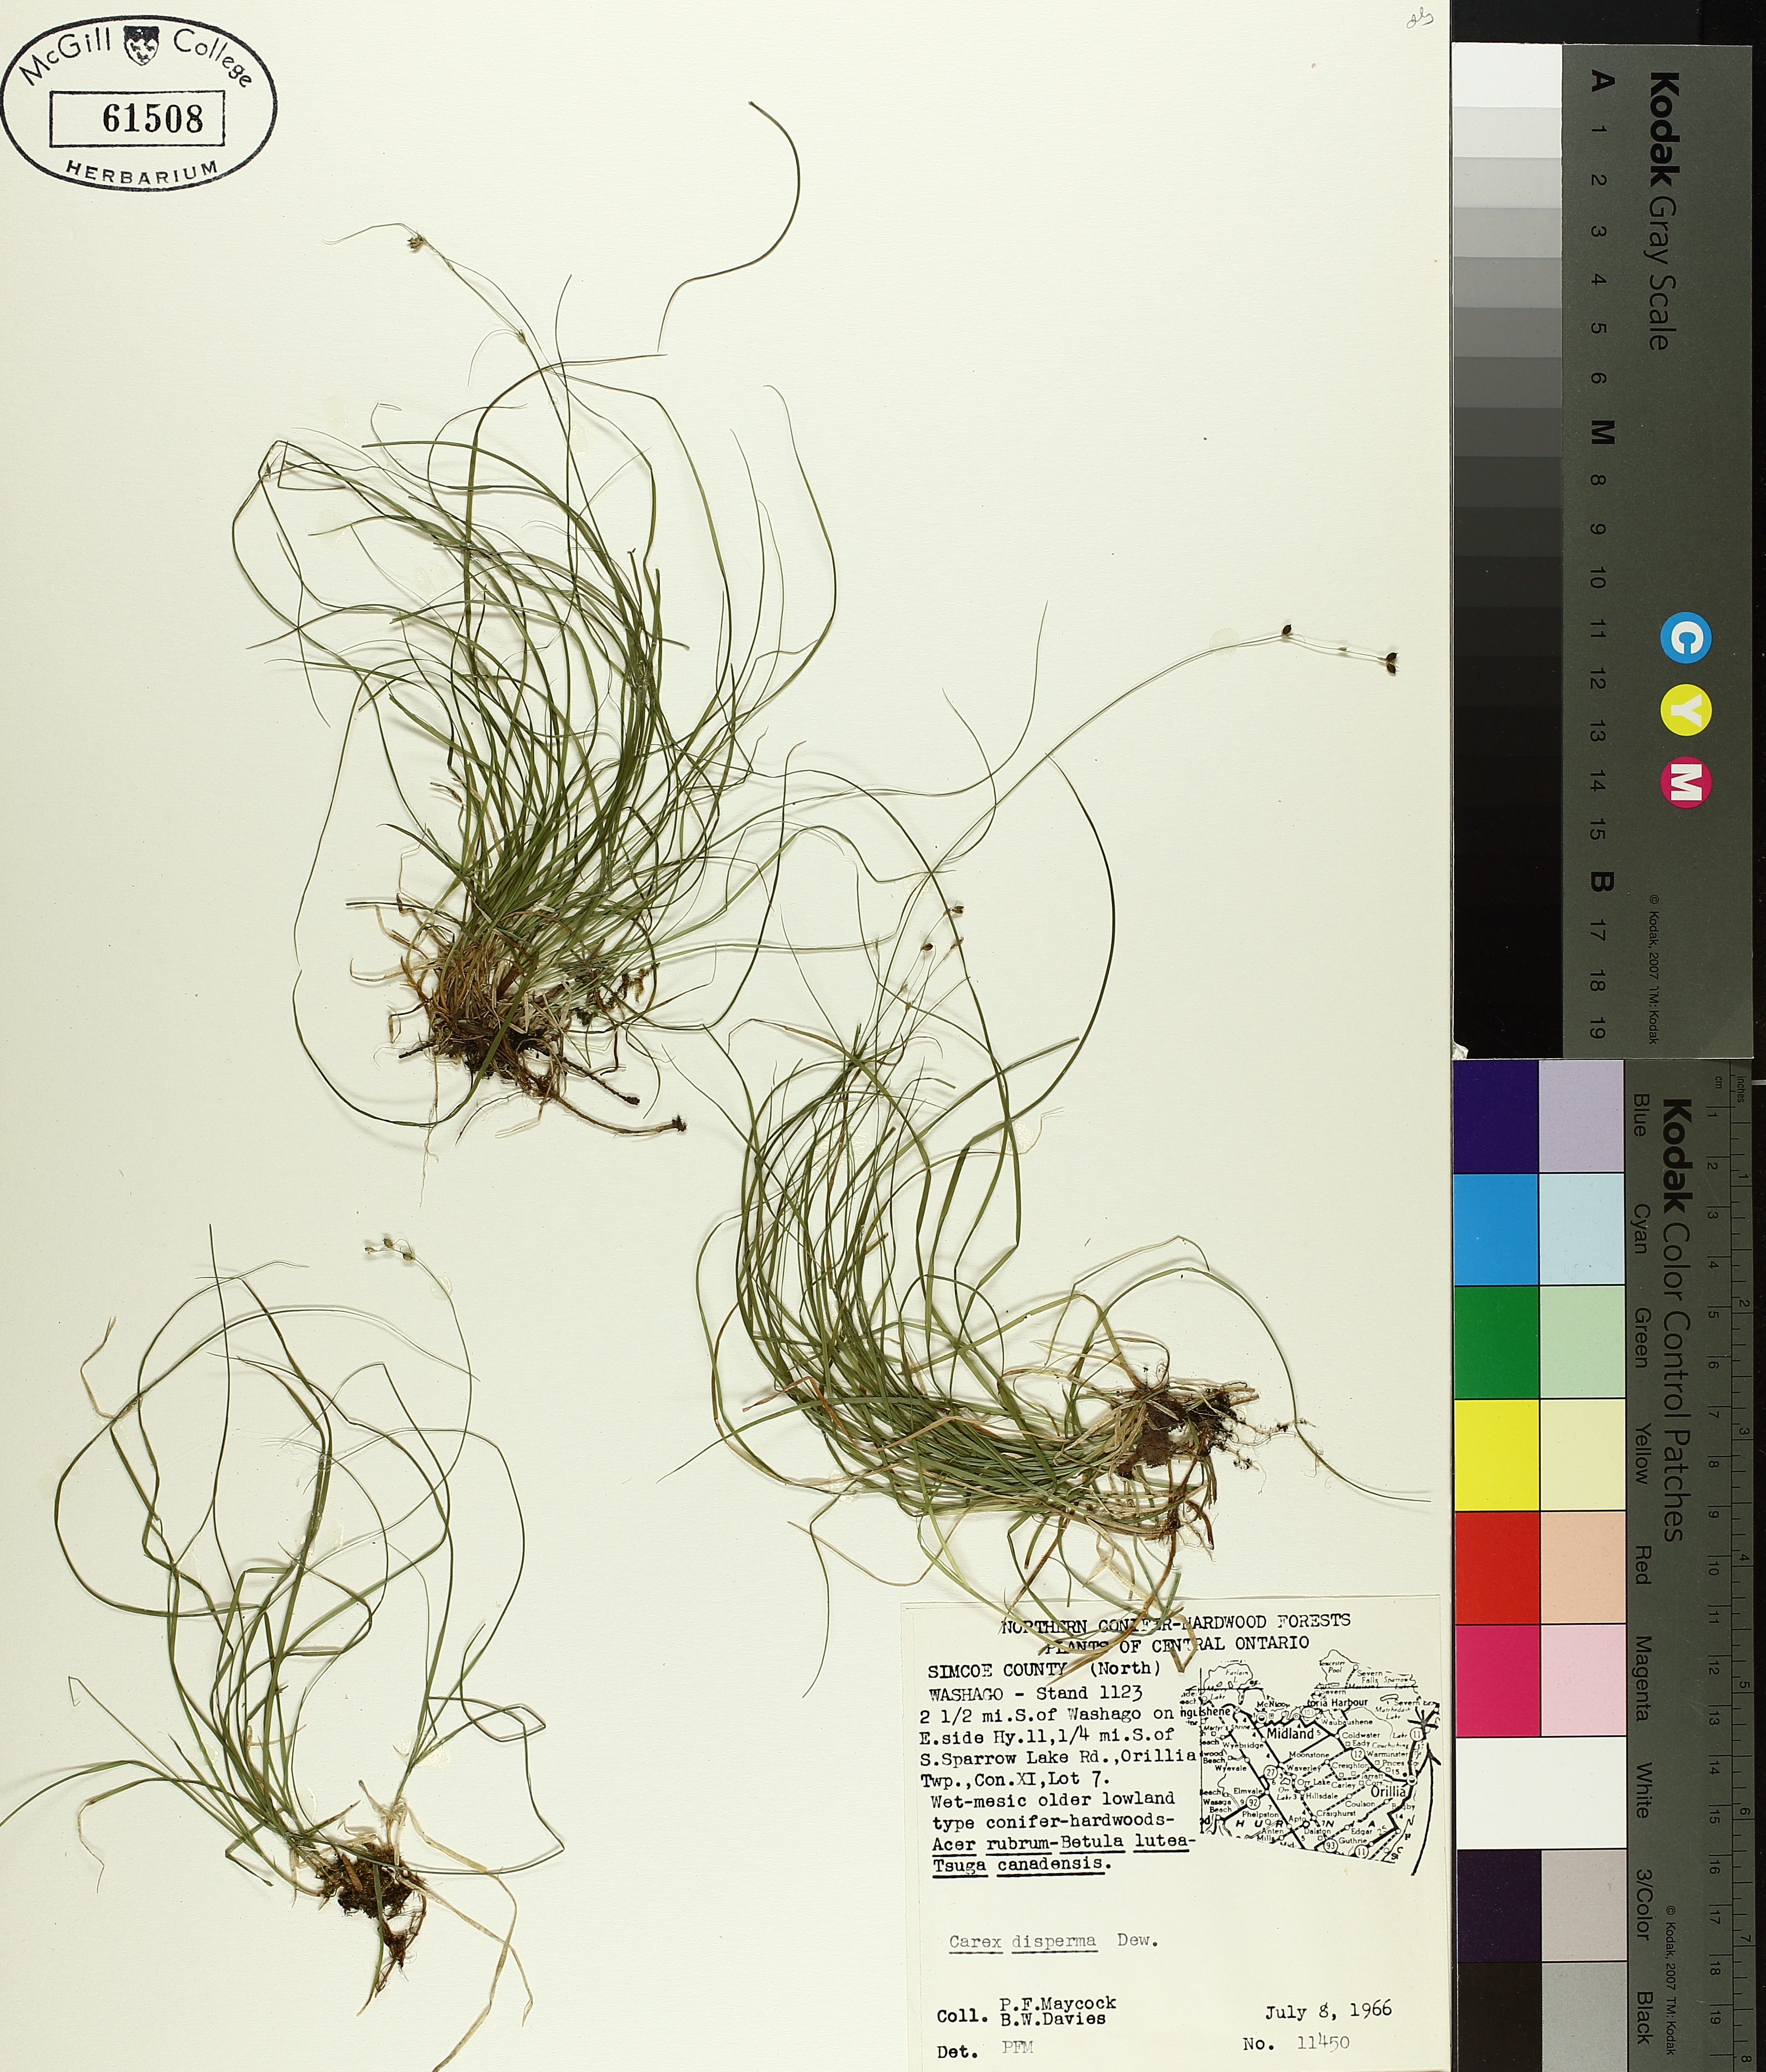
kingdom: Plantae
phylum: Tracheophyta
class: Liliopsida
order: Poales
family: Cyperaceae
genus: Carex
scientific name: Carex disperma
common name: Short-leaved sedge
